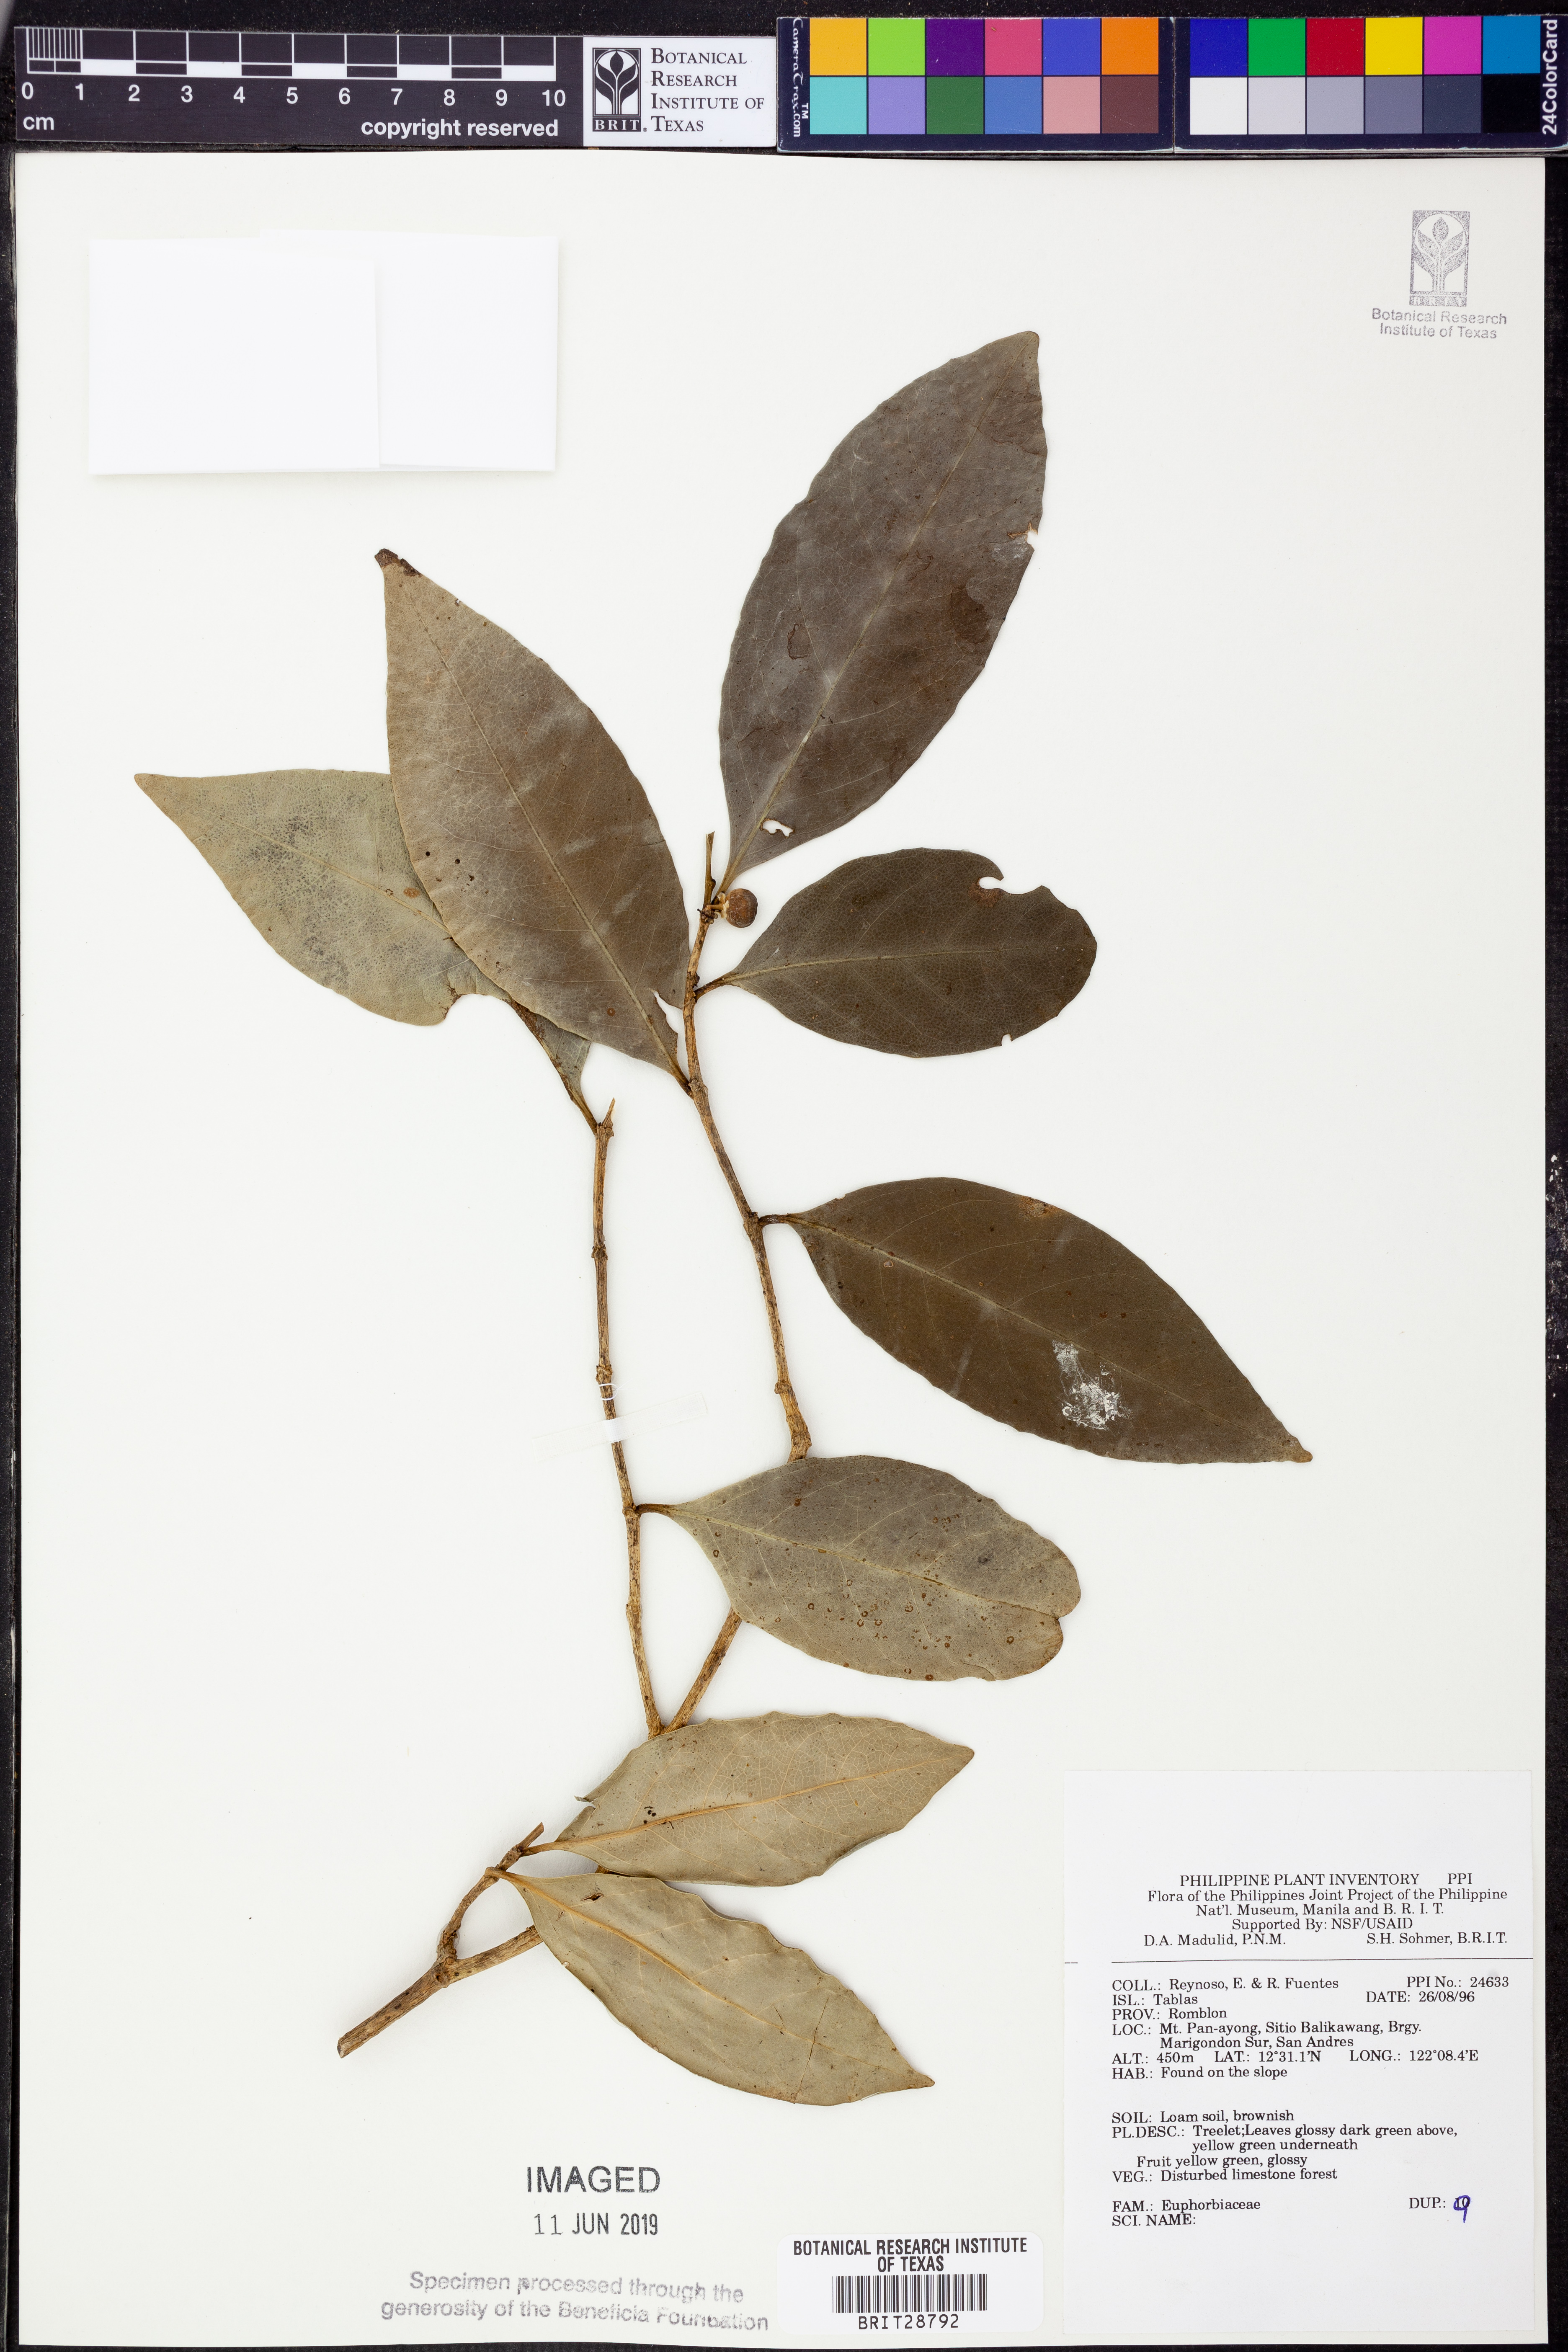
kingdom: Plantae
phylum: Tracheophyta
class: Magnoliopsida
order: Malpighiales
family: Euphorbiaceae
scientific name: Euphorbiaceae
